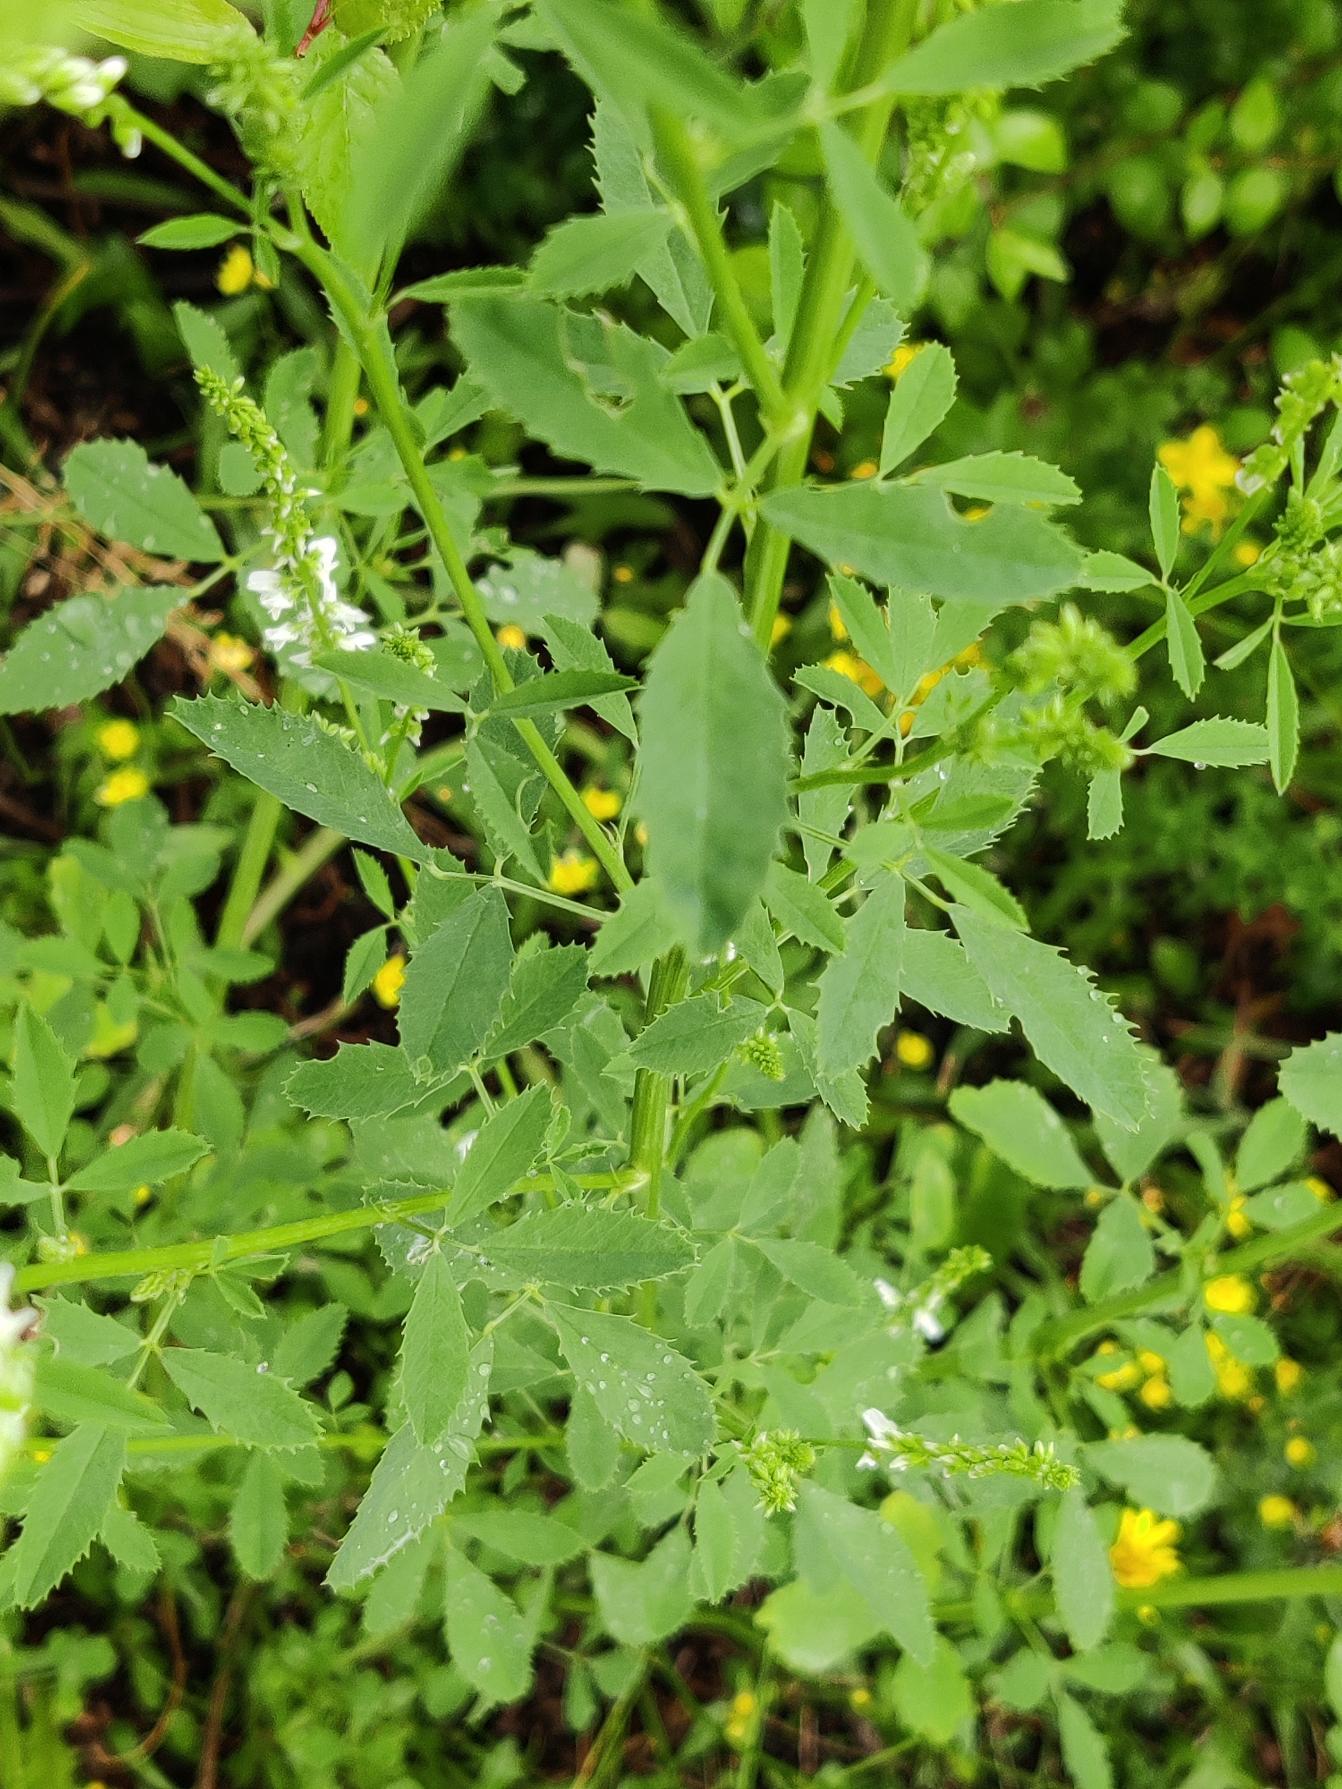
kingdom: Plantae
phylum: Tracheophyta
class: Magnoliopsida
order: Fabales
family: Fabaceae
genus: Melilotus
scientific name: Melilotus albus
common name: Hvid stenkløver
